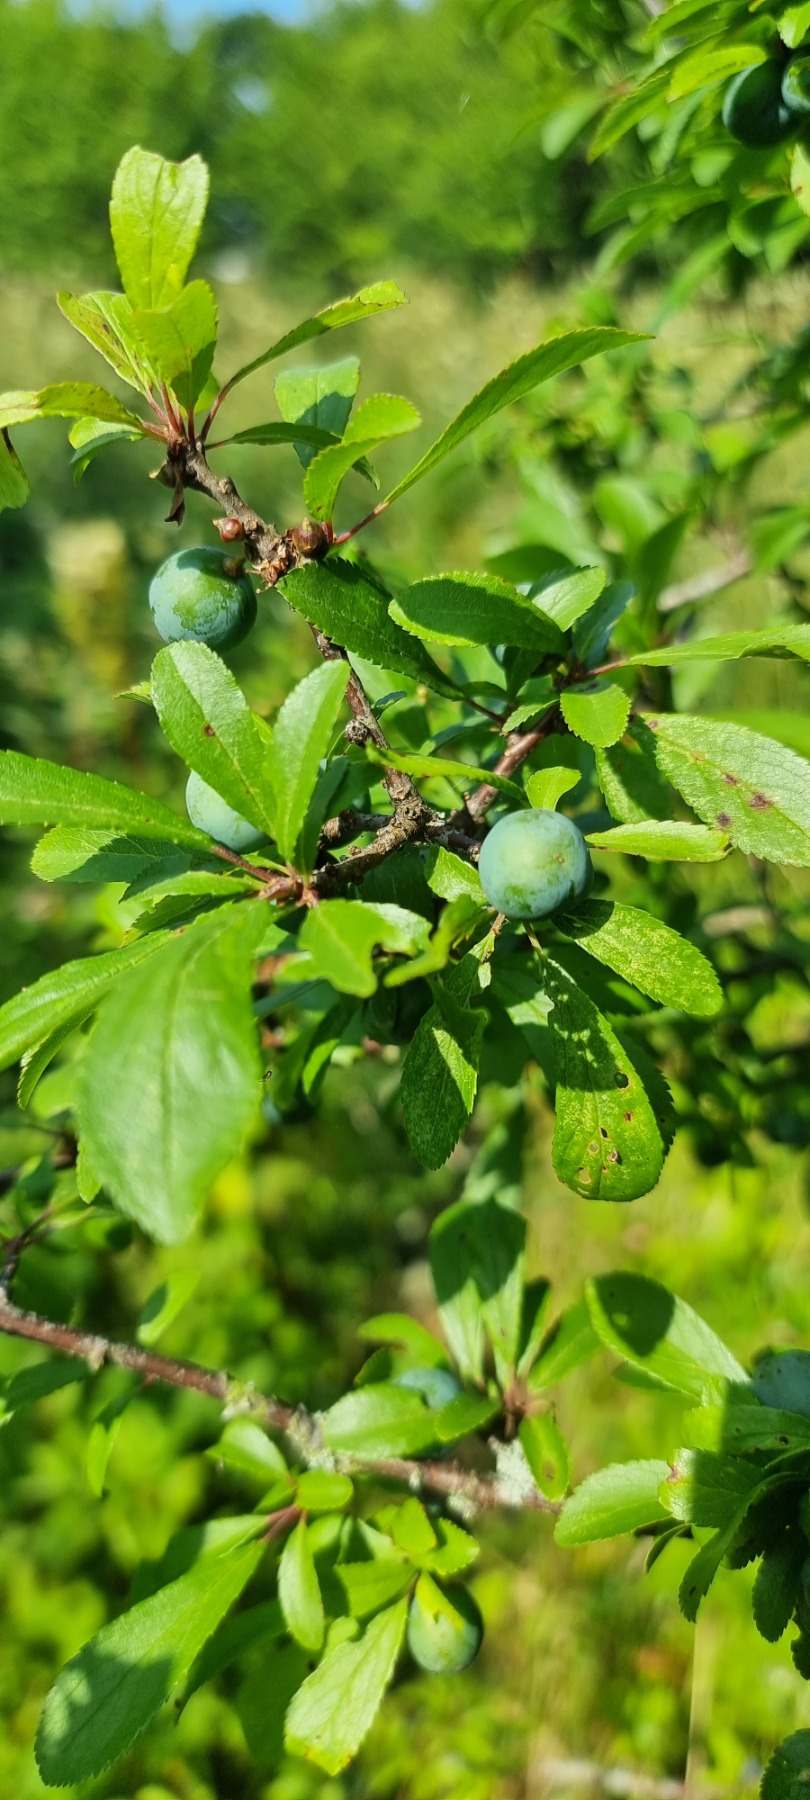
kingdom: Plantae
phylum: Tracheophyta
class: Magnoliopsida
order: Rosales
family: Rosaceae
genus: Prunus
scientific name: Prunus spinosa
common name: Slåen
